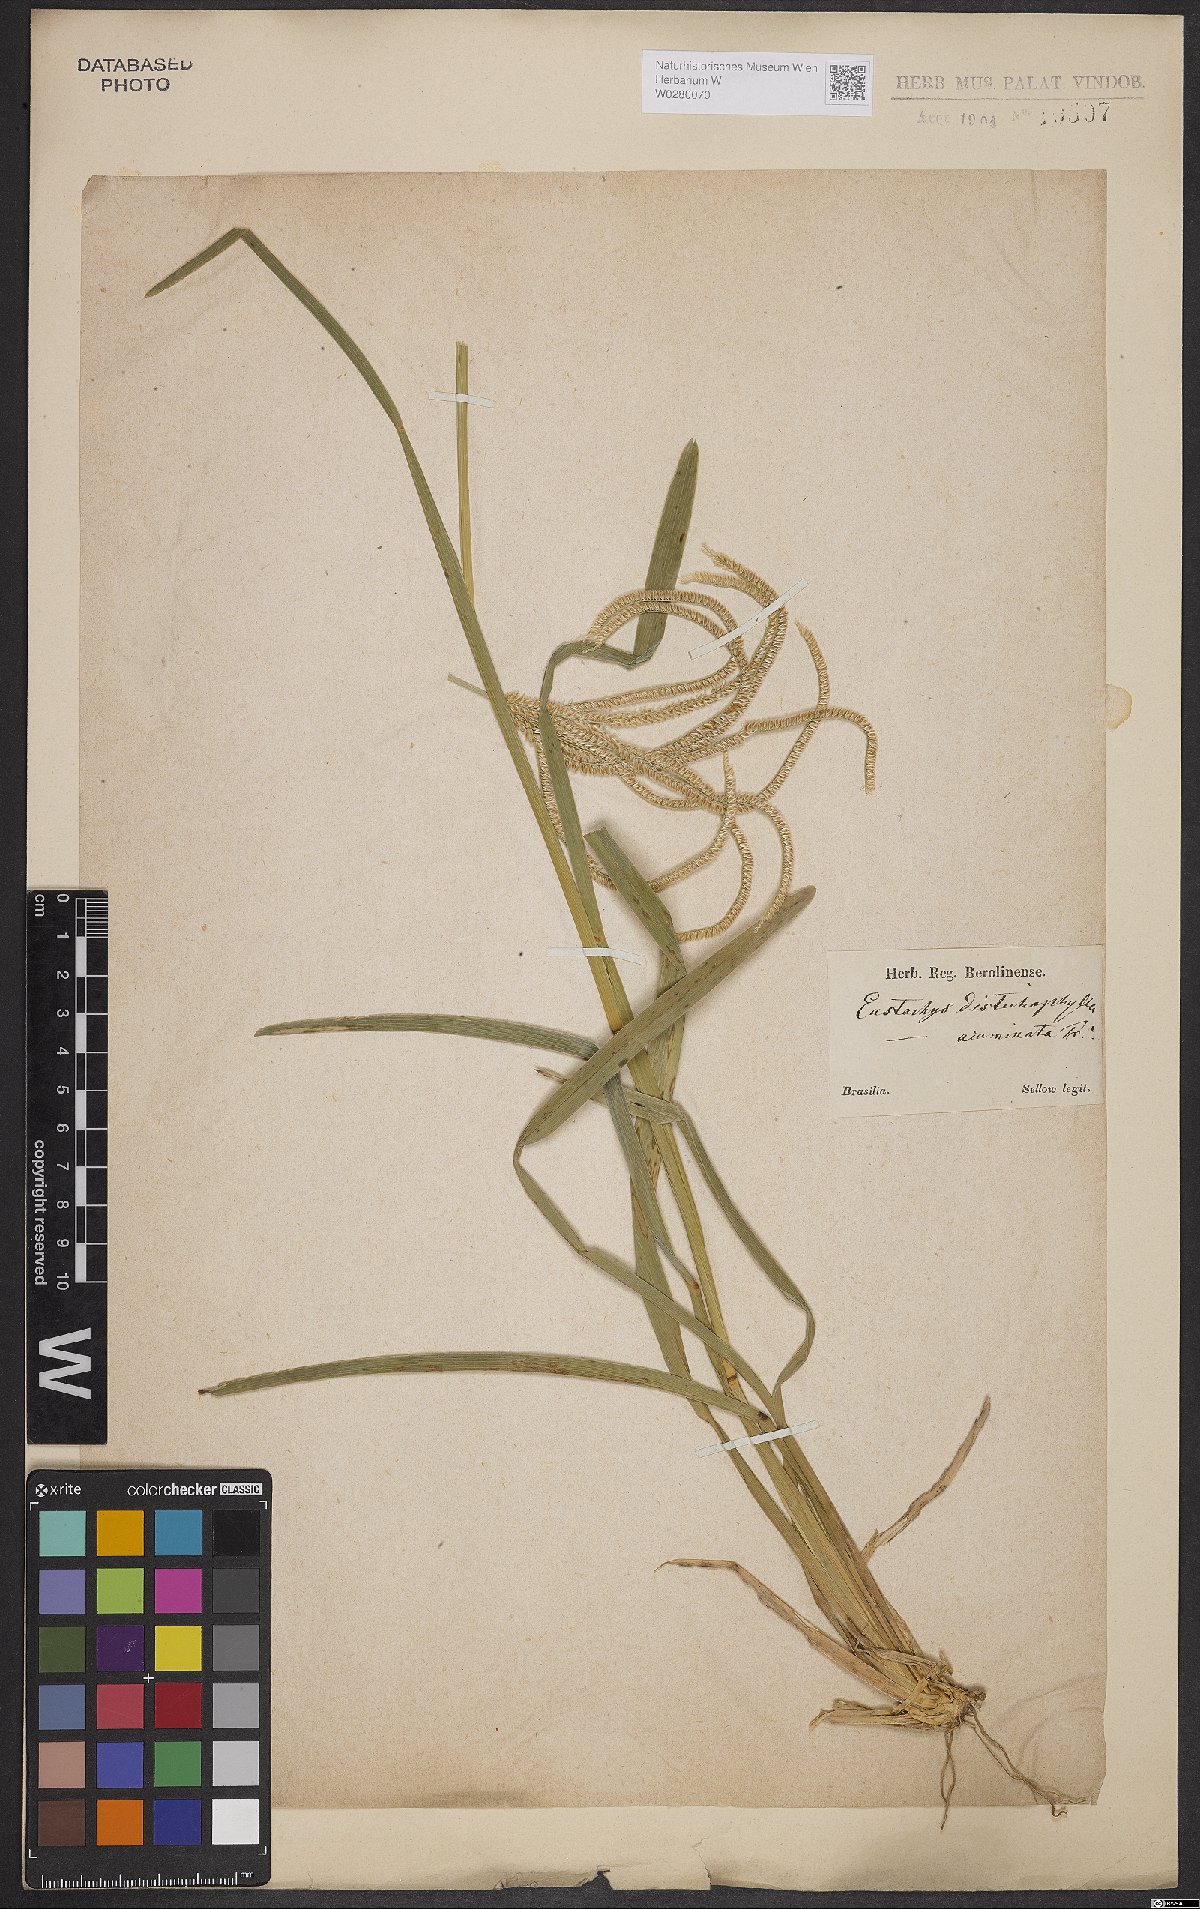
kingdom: Plantae
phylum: Tracheophyta
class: Liliopsida
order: Poales
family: Poaceae
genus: Eustachys
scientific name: Eustachys distichophylla
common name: Weeping fingergrass
